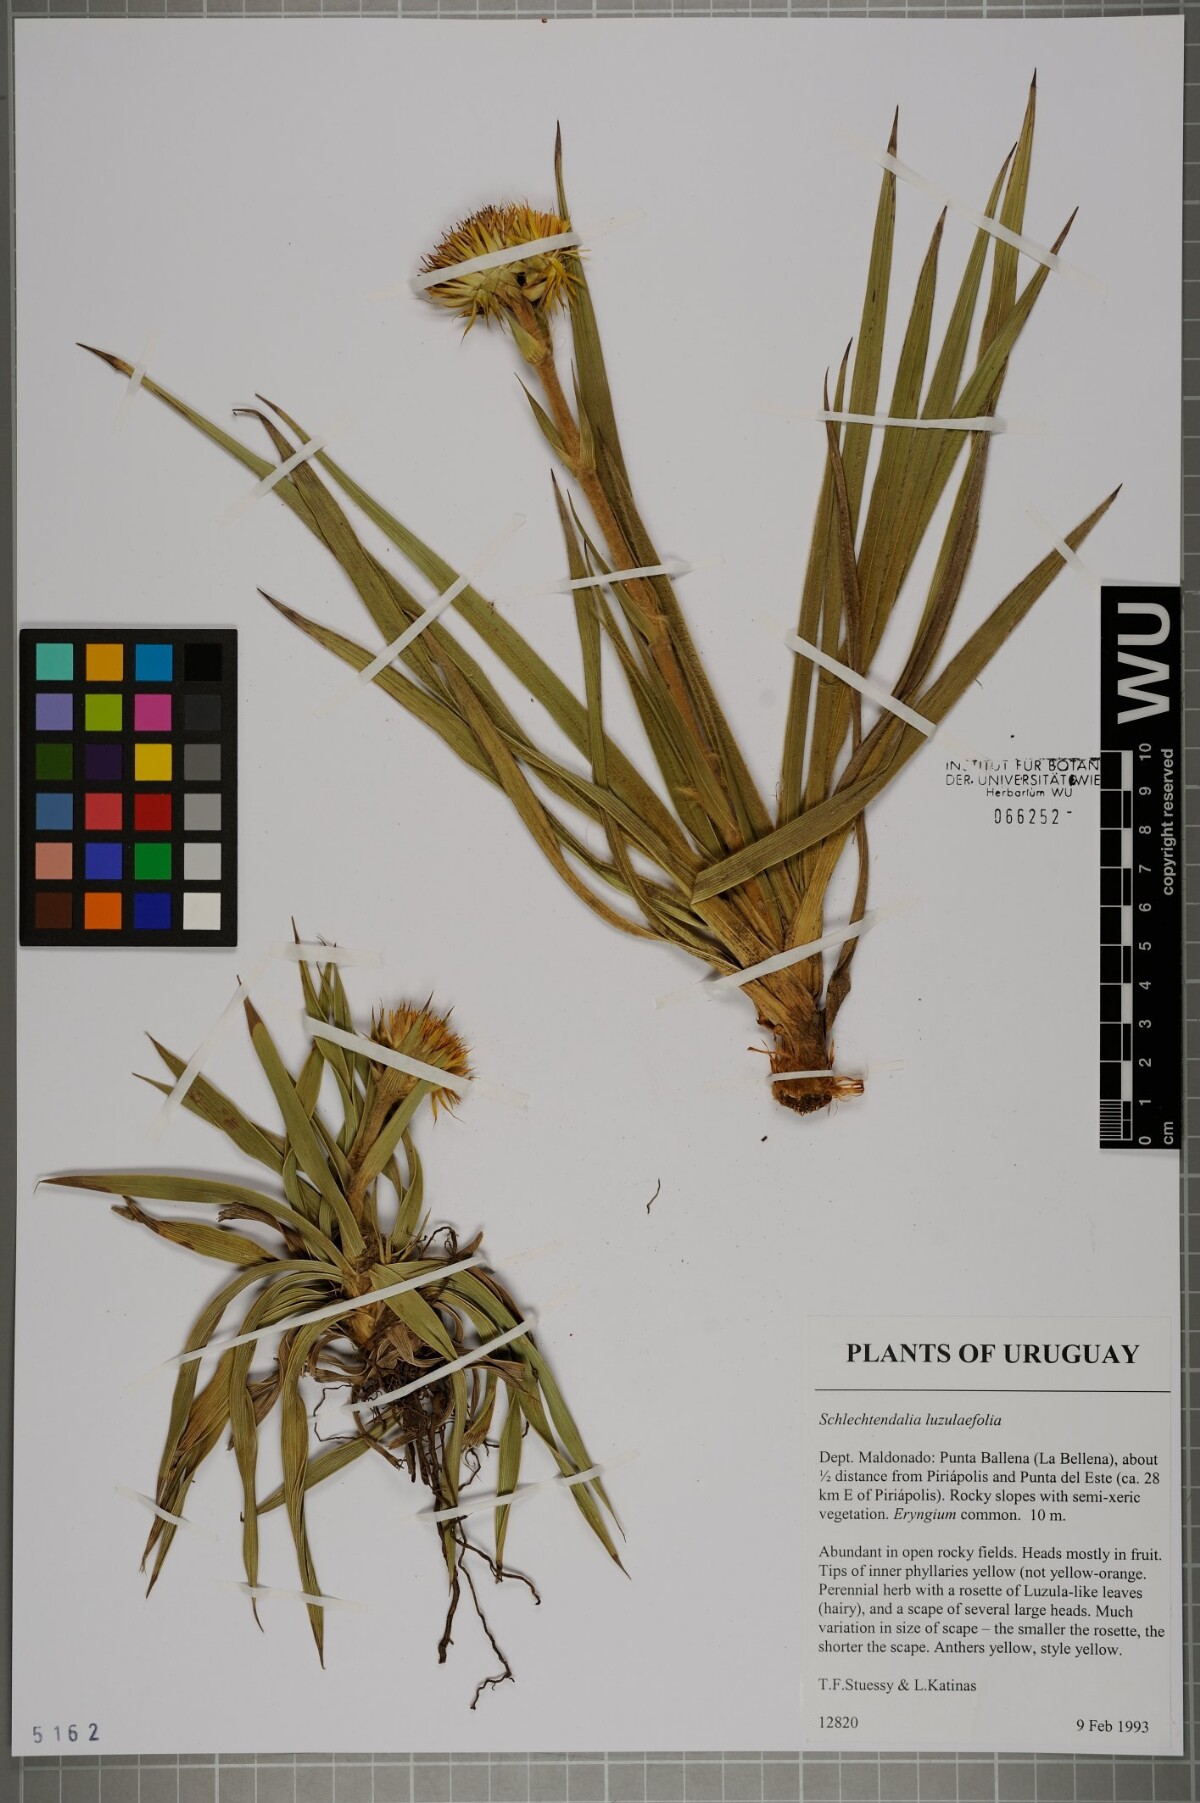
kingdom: Plantae
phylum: Tracheophyta
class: Magnoliopsida
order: Asterales
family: Asteraceae
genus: Schlechtendalia
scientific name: Schlechtendalia luzulifolia
